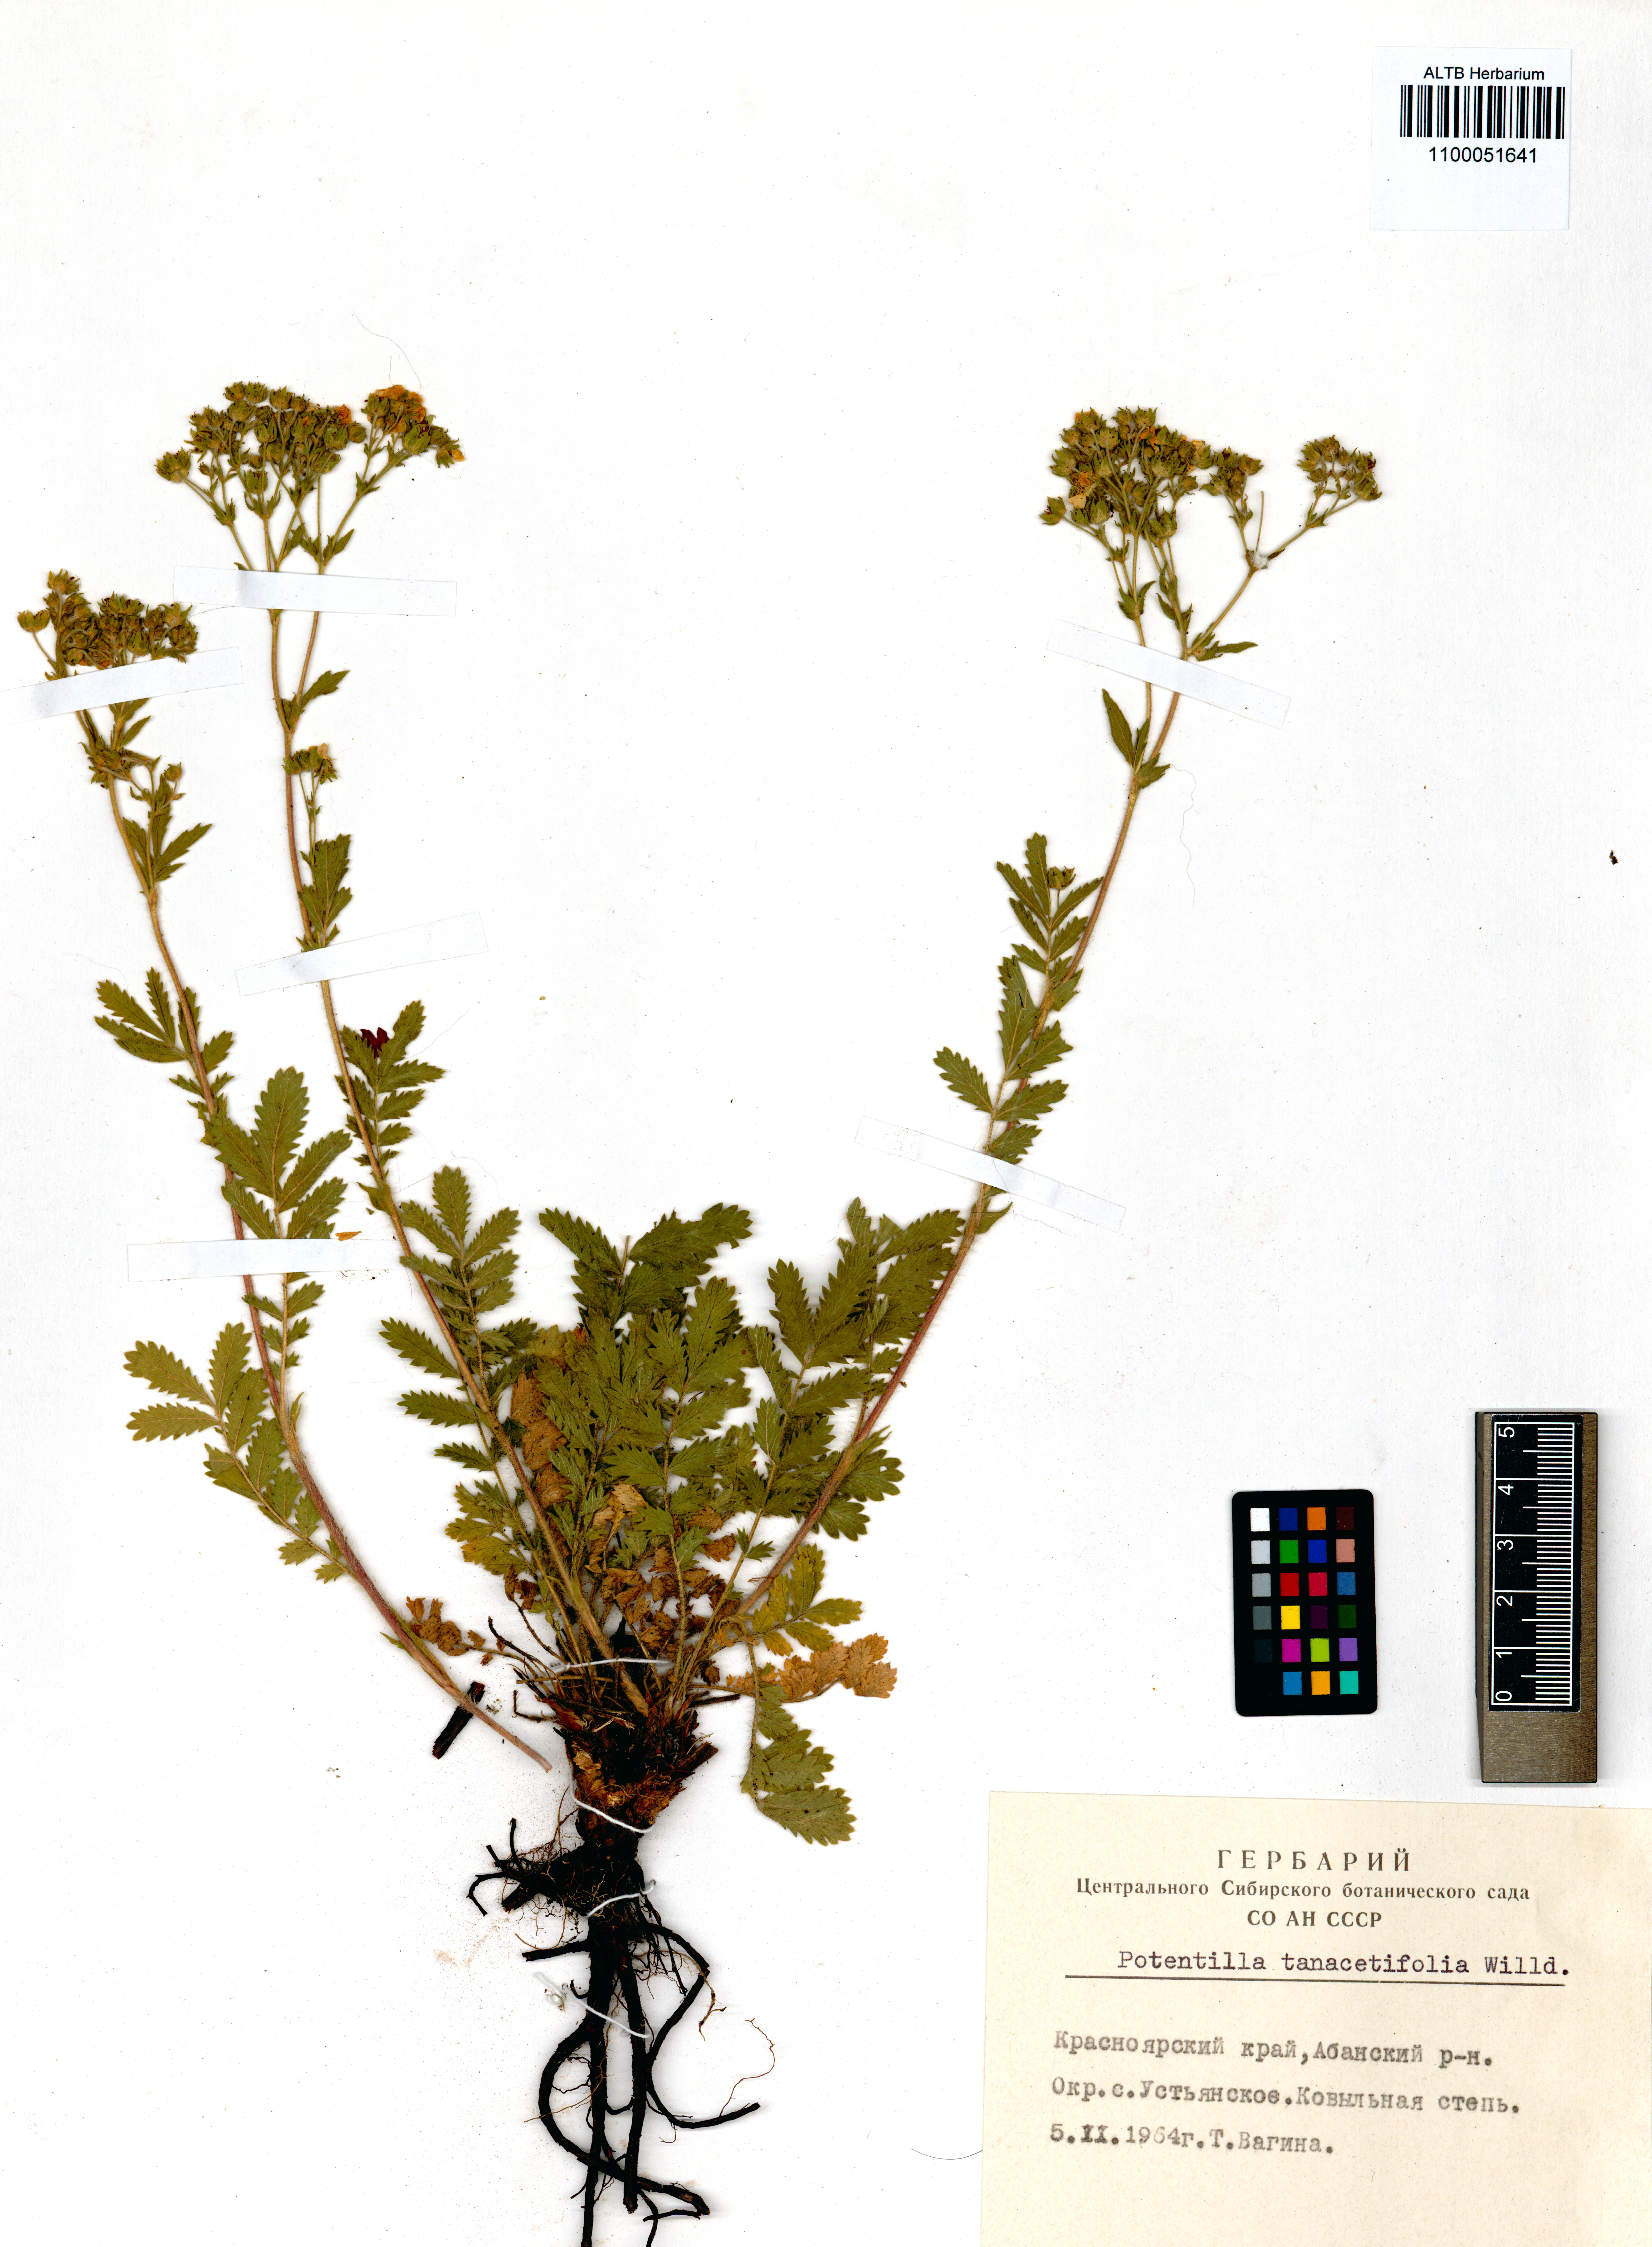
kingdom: Plantae
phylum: Tracheophyta
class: Magnoliopsida
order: Rosales
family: Rosaceae
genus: Potentilla
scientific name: Potentilla tanacetifolia
